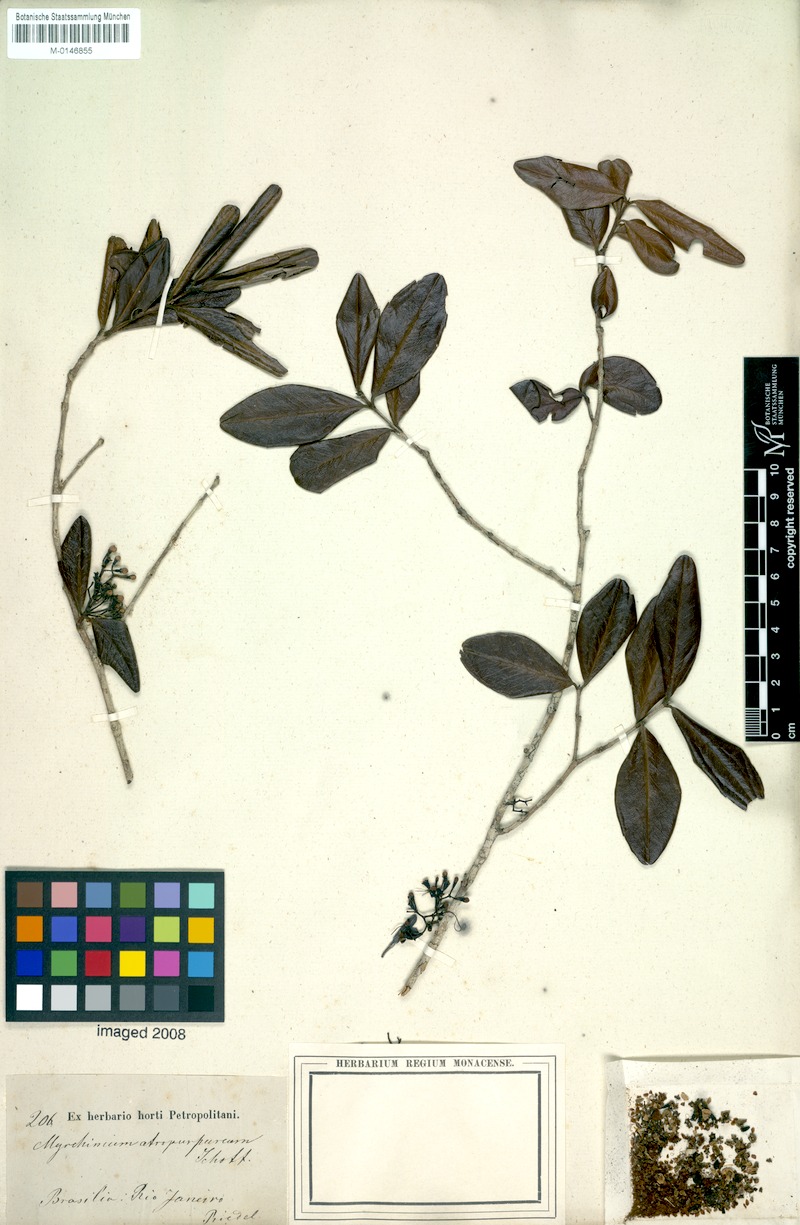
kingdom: Plantae
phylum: Tracheophyta
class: Magnoliopsida
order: Myrtales
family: Myrtaceae
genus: Myrrhinium
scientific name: Myrrhinium atropurpureum
